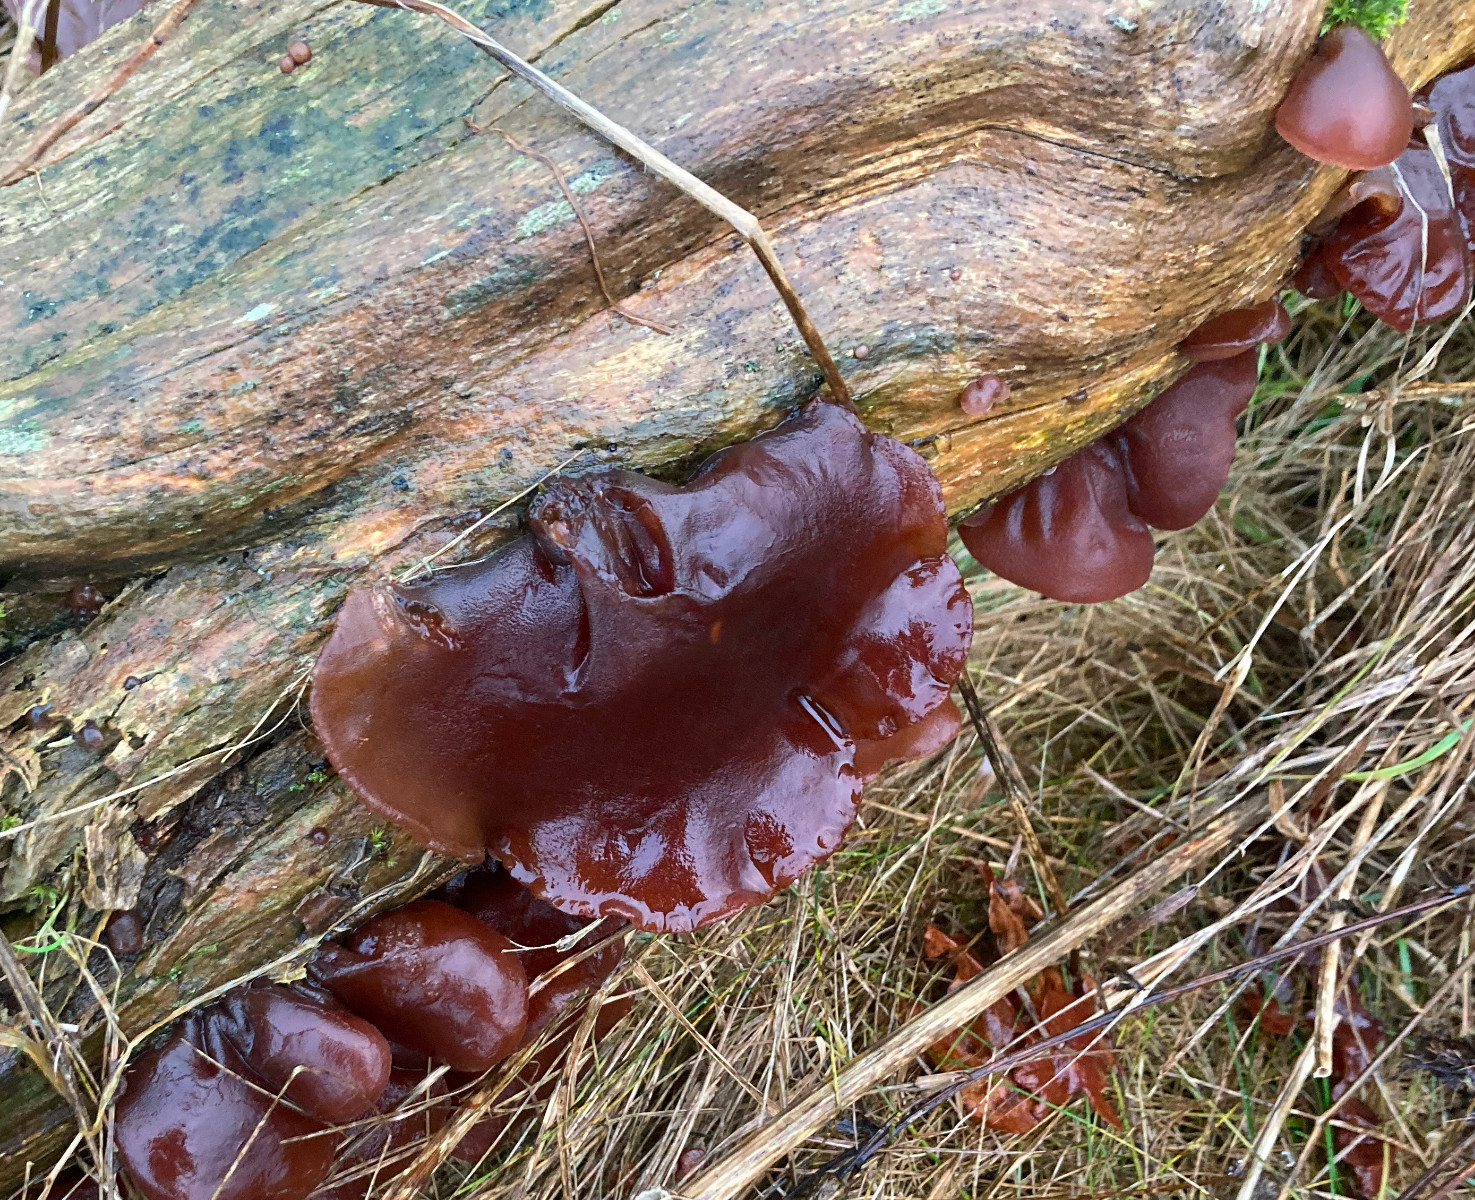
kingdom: Fungi
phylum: Basidiomycota
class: Agaricomycetes
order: Auriculariales
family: Auriculariaceae
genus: Auricularia
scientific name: Auricularia auricula-judae
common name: almindelig judasøre
